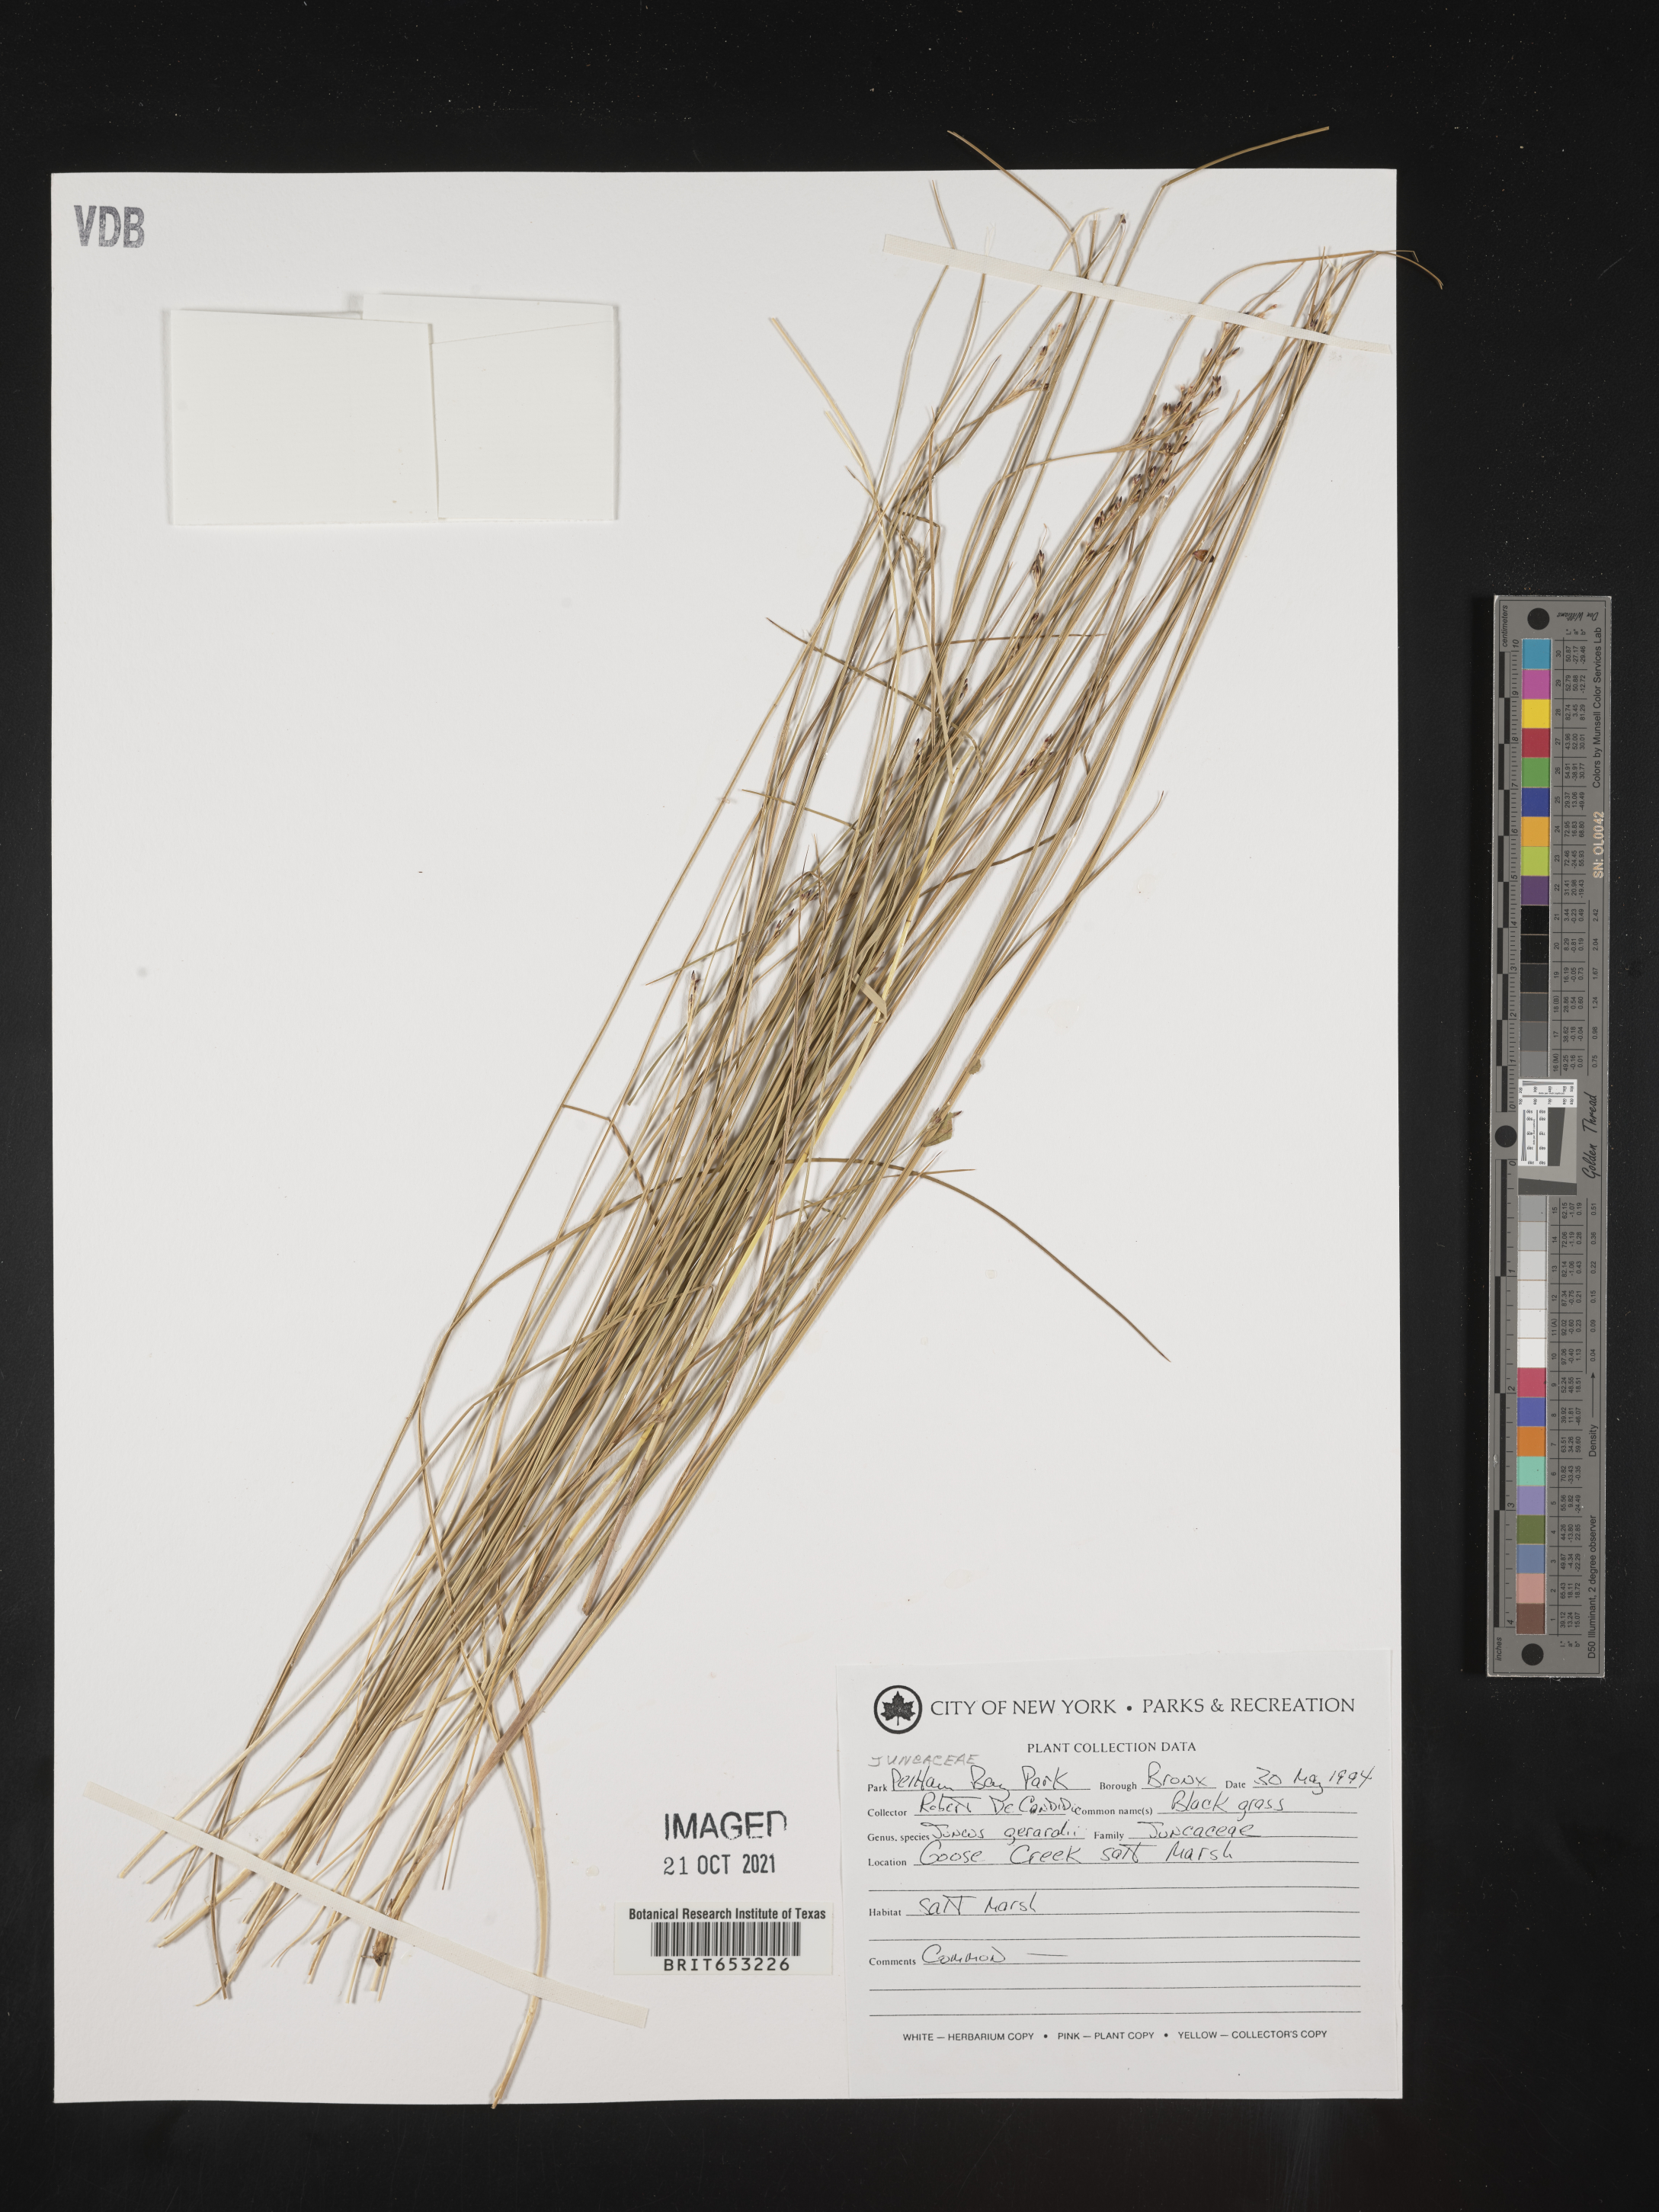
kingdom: Plantae
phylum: Tracheophyta
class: Liliopsida
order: Poales
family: Juncaceae
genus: Juncus
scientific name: Juncus gerardi
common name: Saltmarsh rush
